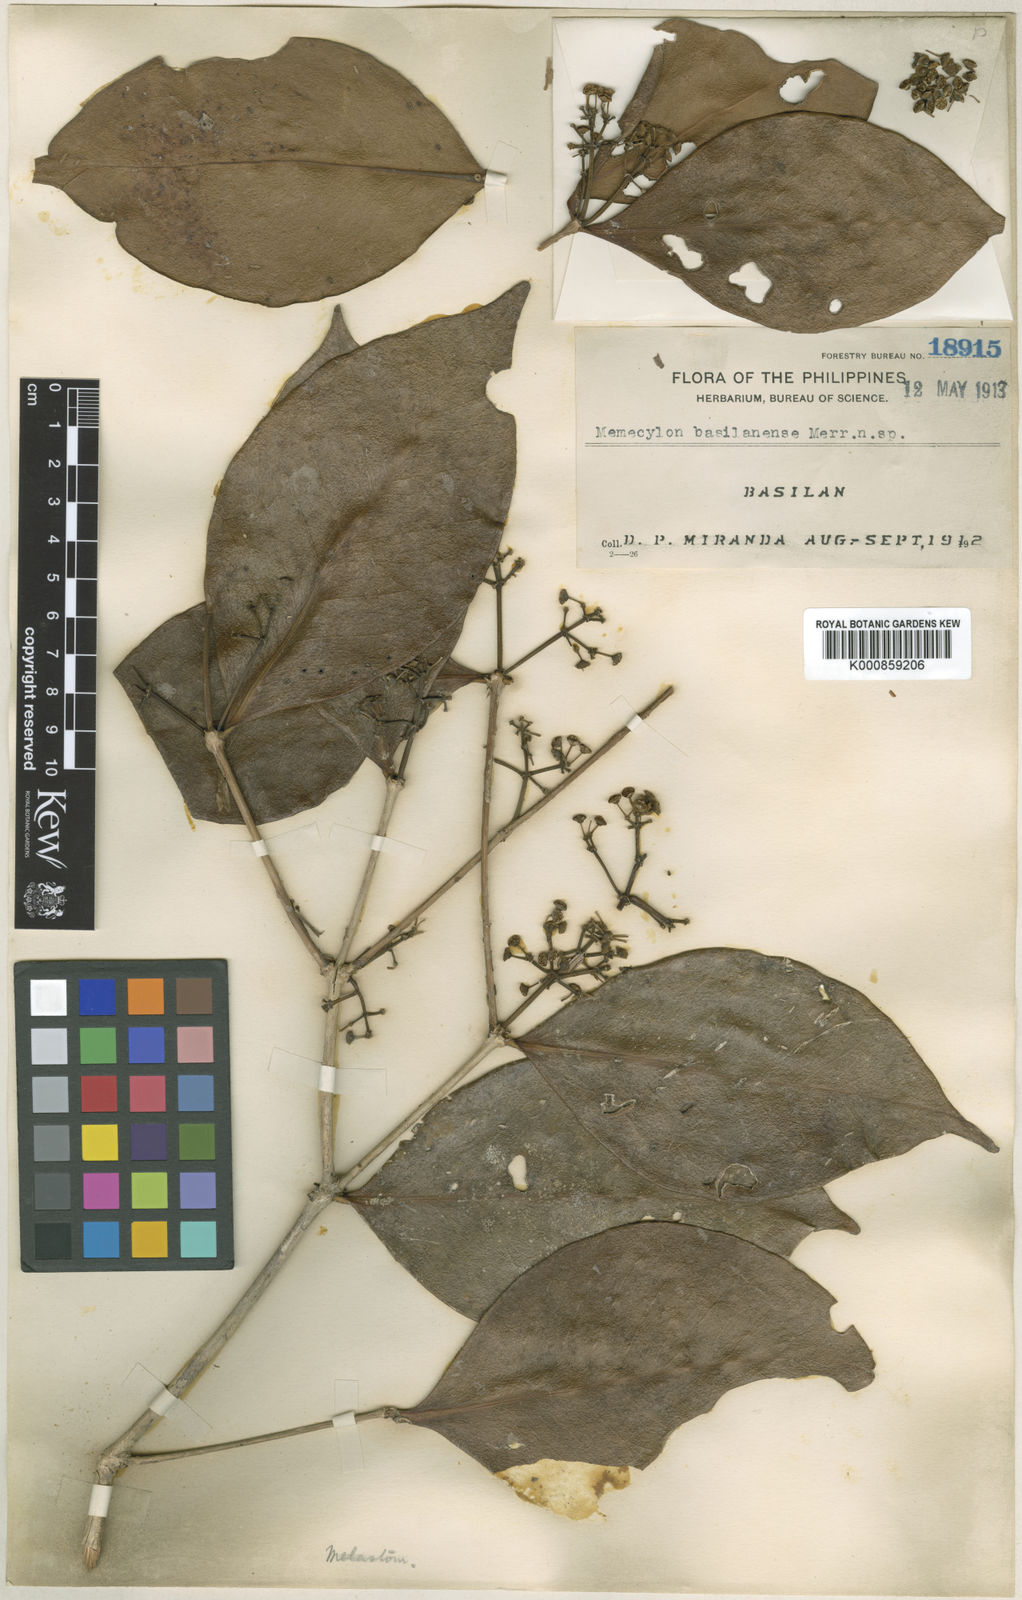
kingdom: Plantae
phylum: Tracheophyta
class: Magnoliopsida
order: Myrtales
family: Melastomataceae
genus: Memecylon
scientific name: Memecylon basilanense
